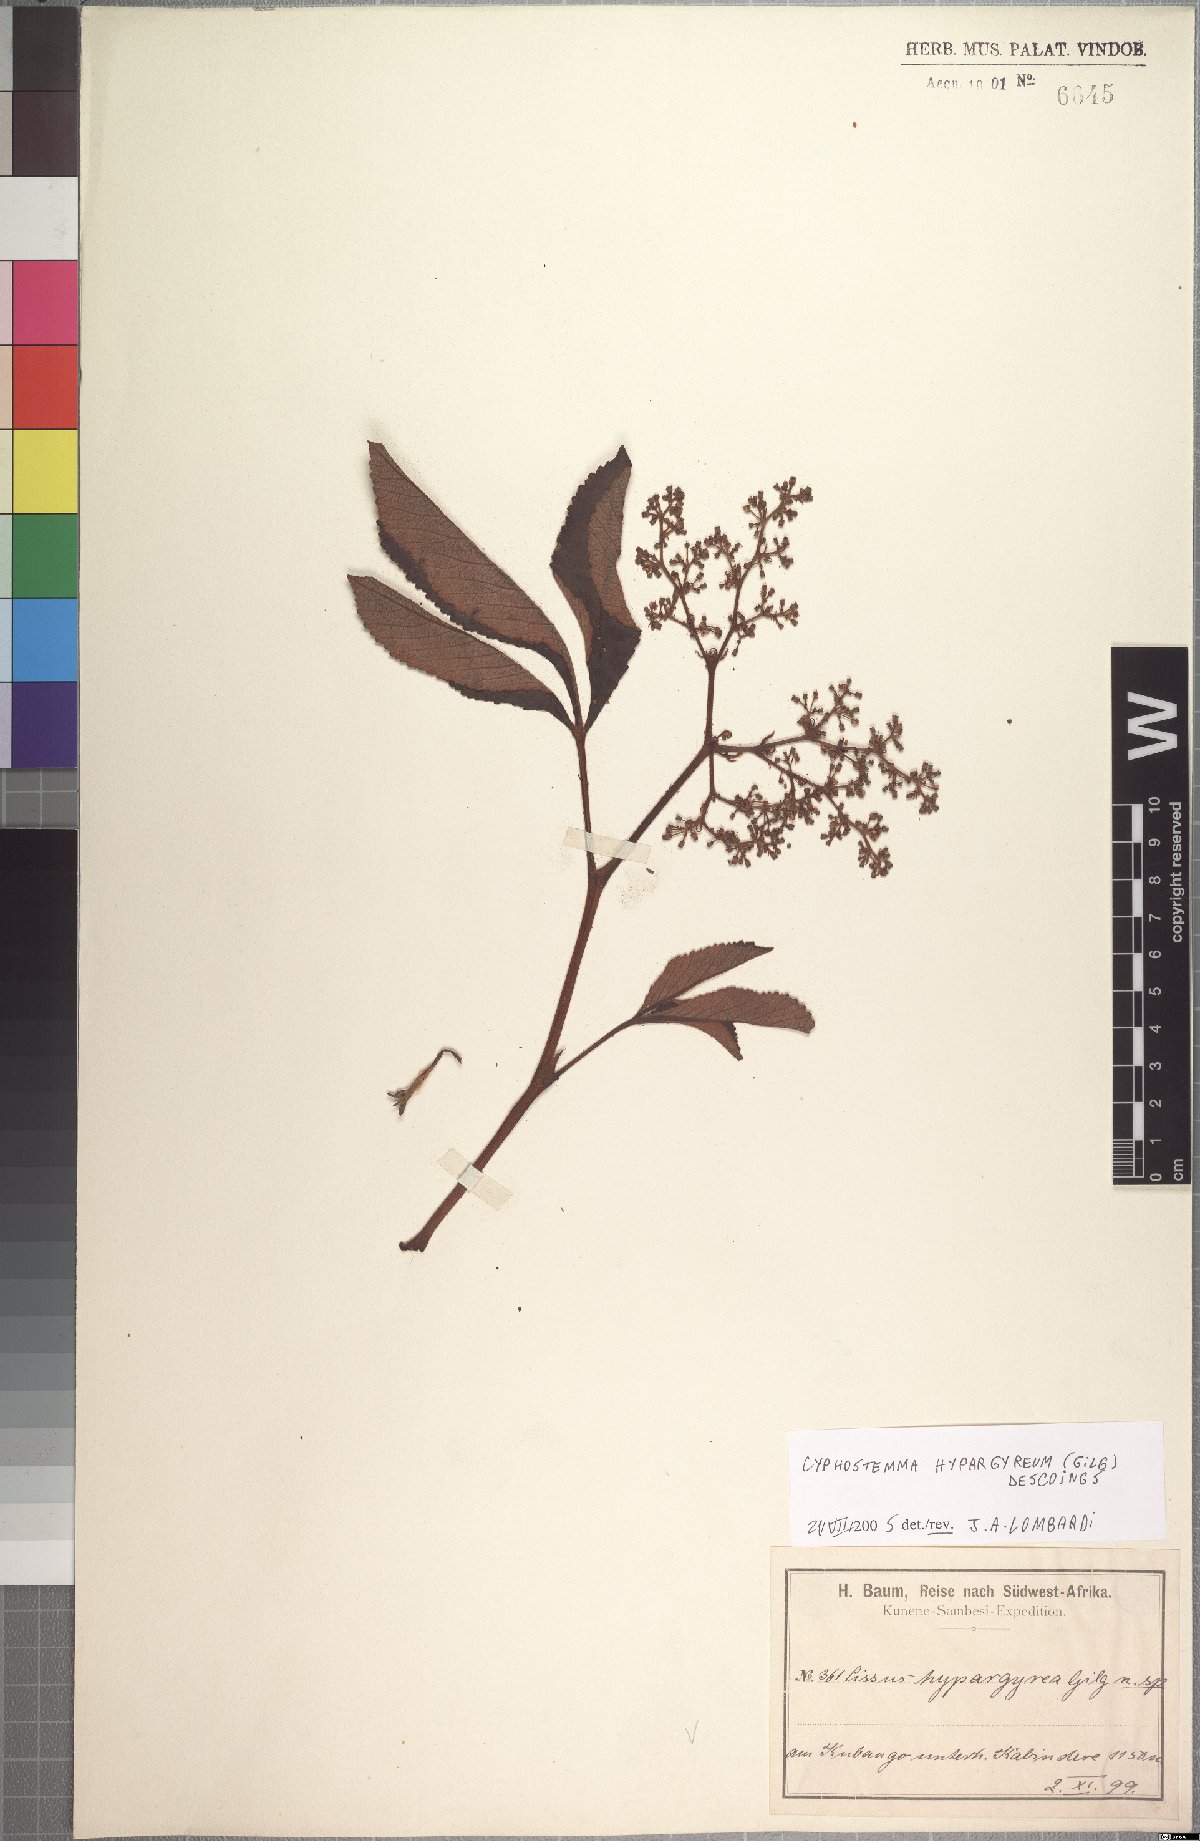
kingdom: Plantae
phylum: Tracheophyta
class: Magnoliopsida
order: Vitales
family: Vitaceae
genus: Cyphostemma
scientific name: Cyphostemma chloroleucum
